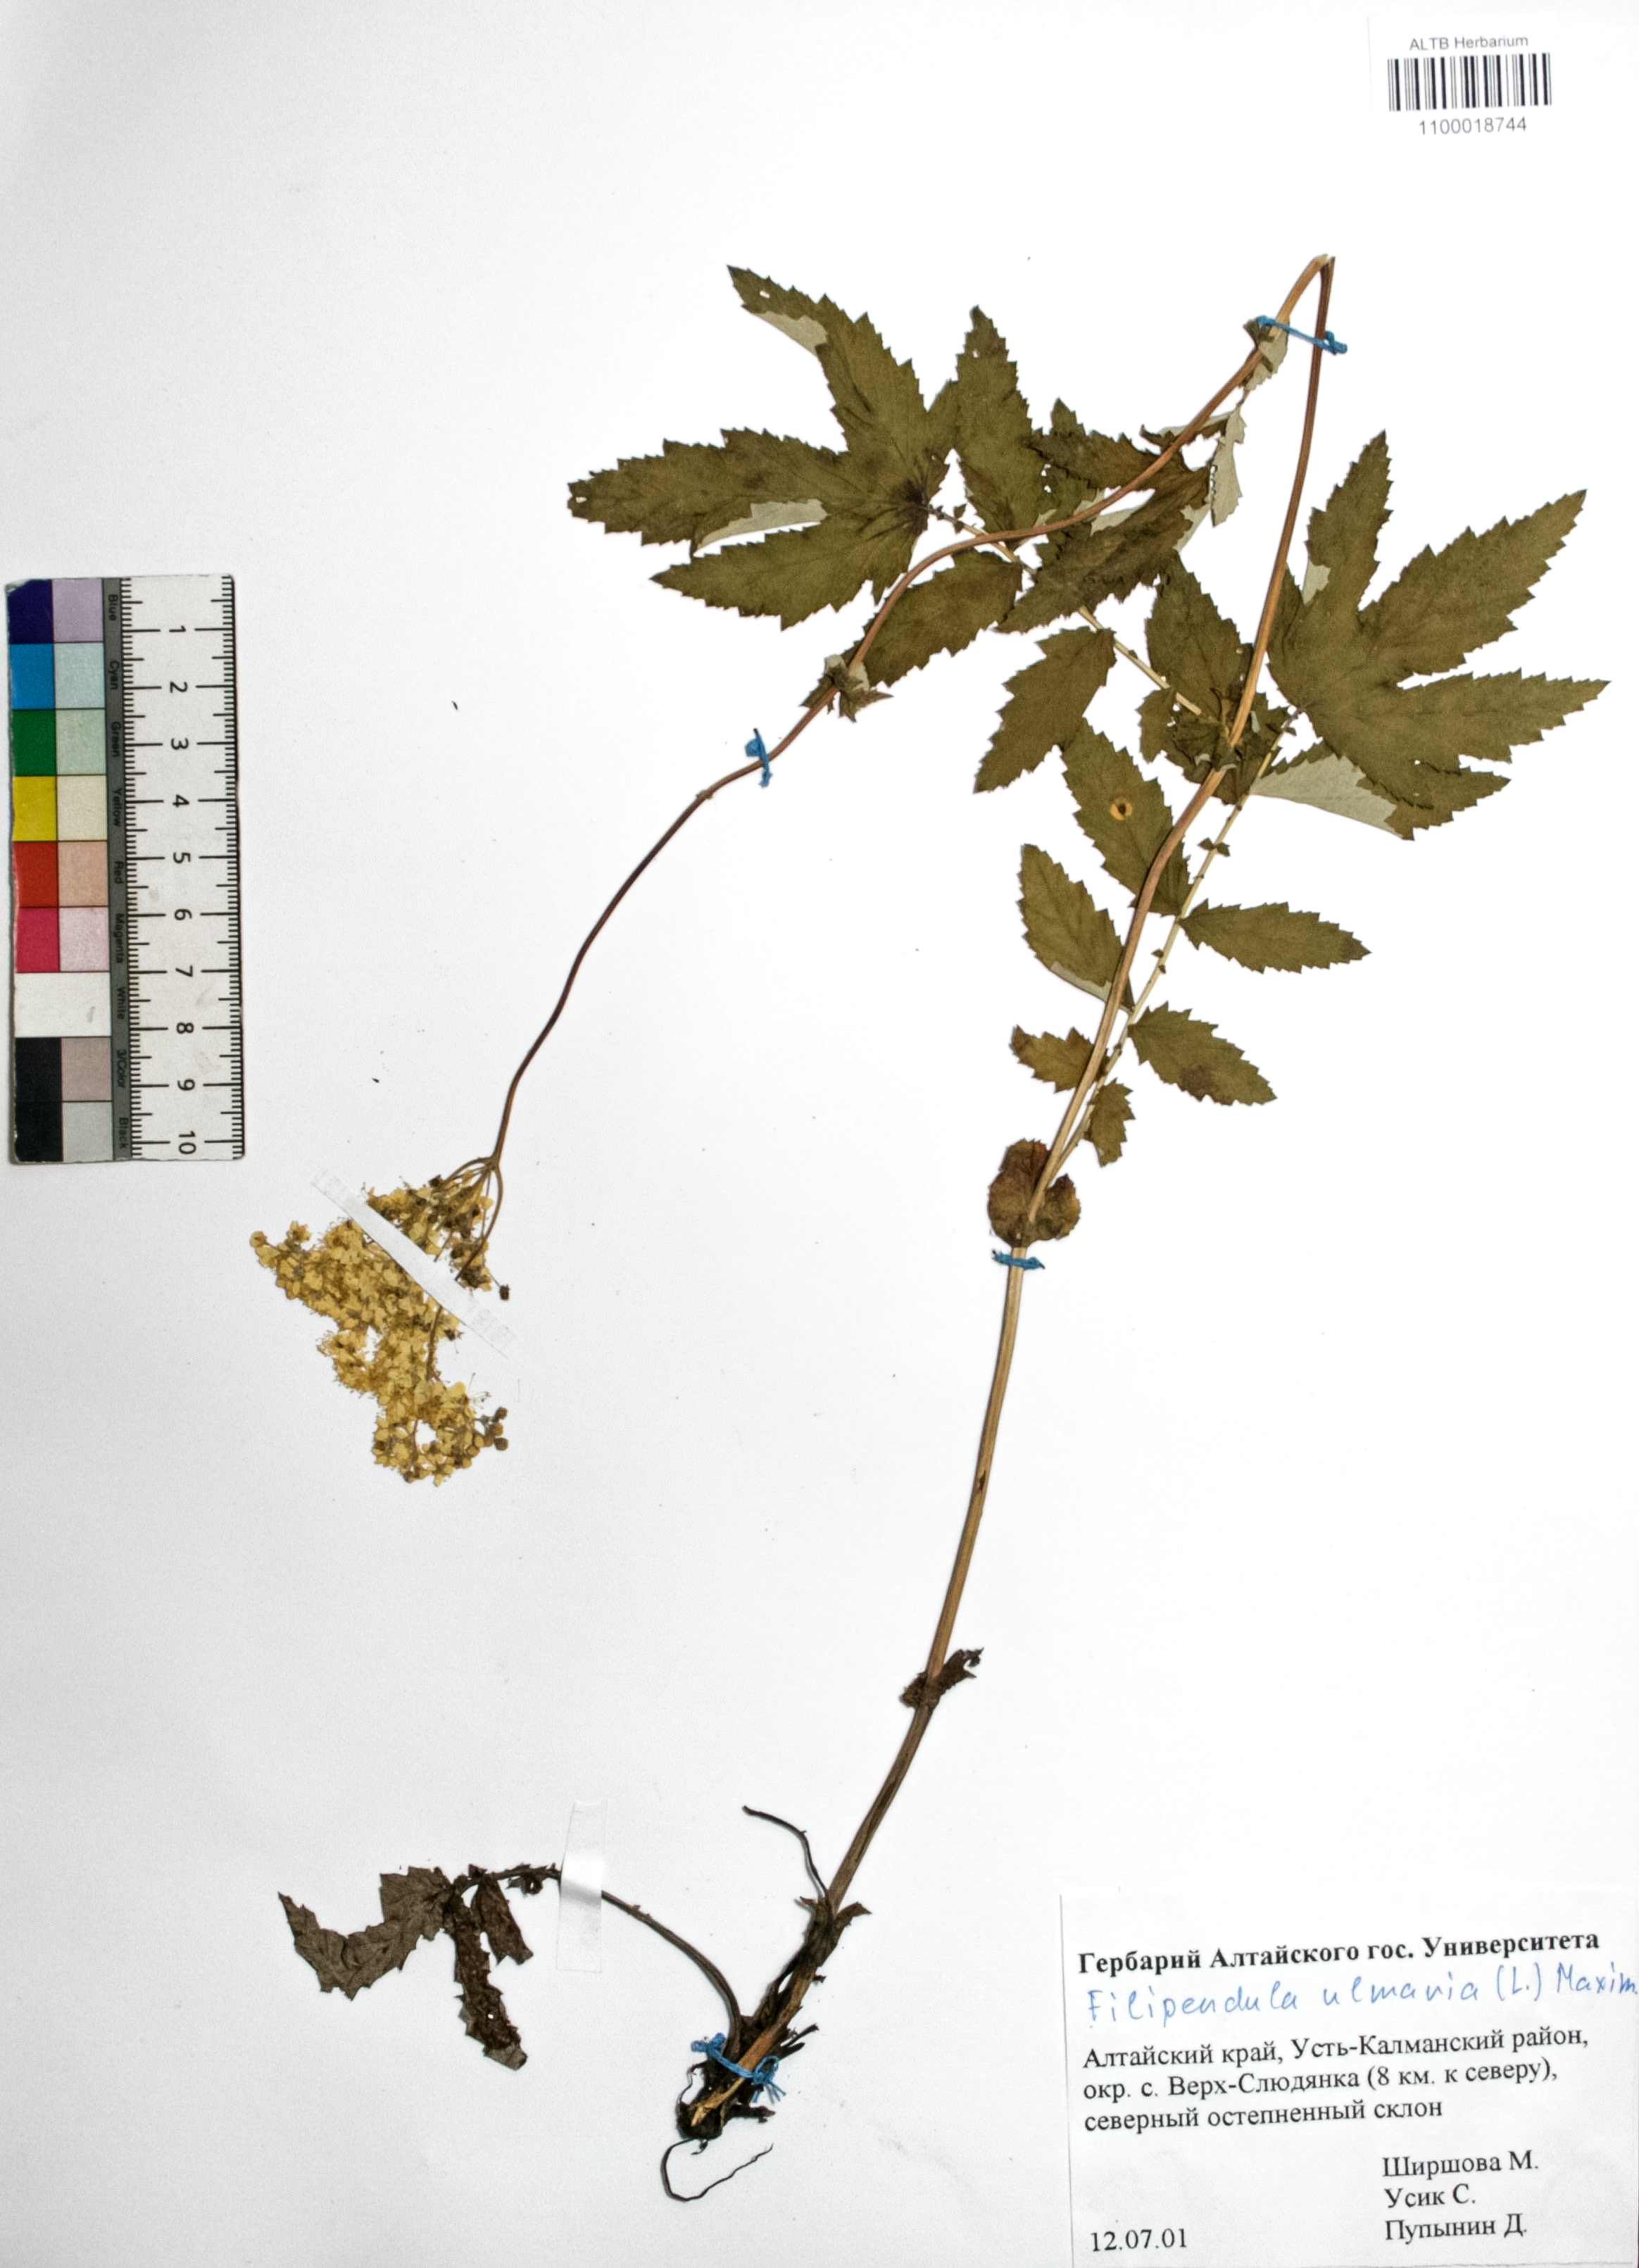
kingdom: Plantae
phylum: Tracheophyta
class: Magnoliopsida
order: Rosales
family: Rosaceae
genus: Filipendula
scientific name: Filipendula ulmaria
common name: Meadowsweet
